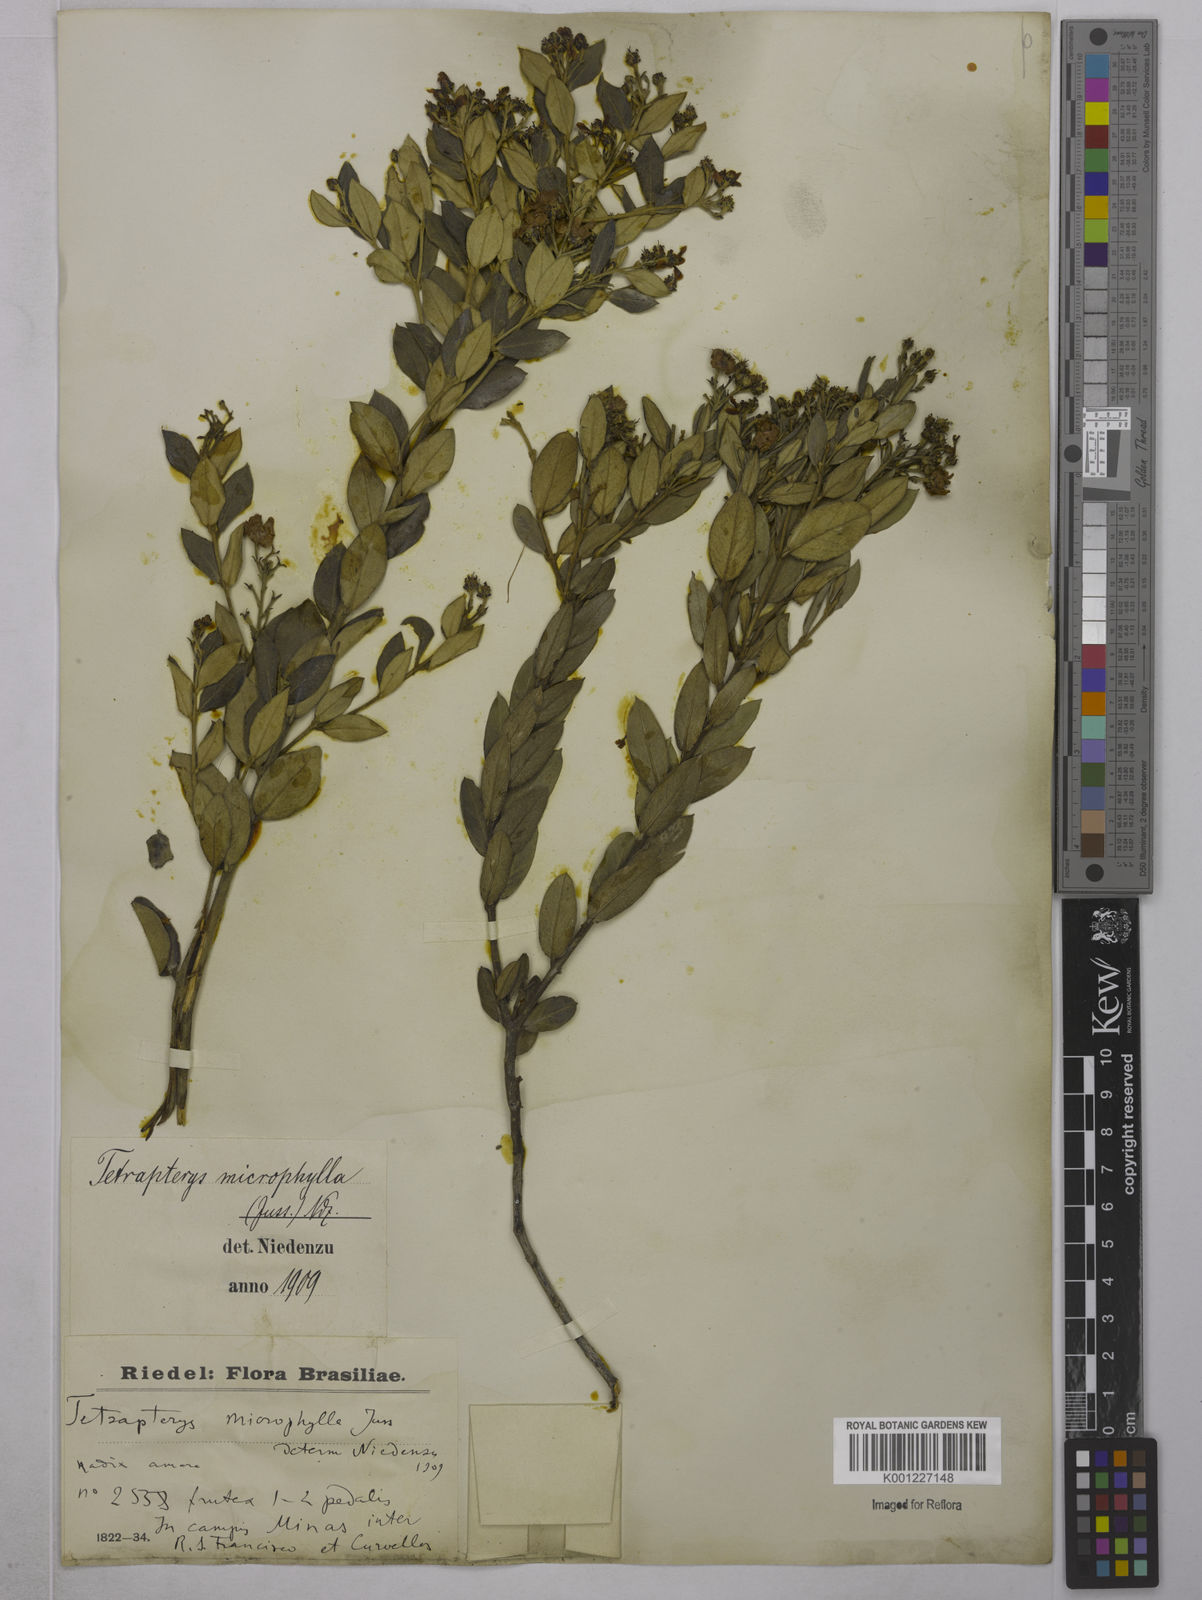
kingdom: Plantae
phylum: Tracheophyta
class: Magnoliopsida
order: Malpighiales
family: Malpighiaceae
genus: Glicophyllum
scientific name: Glicophyllum microphyllum
